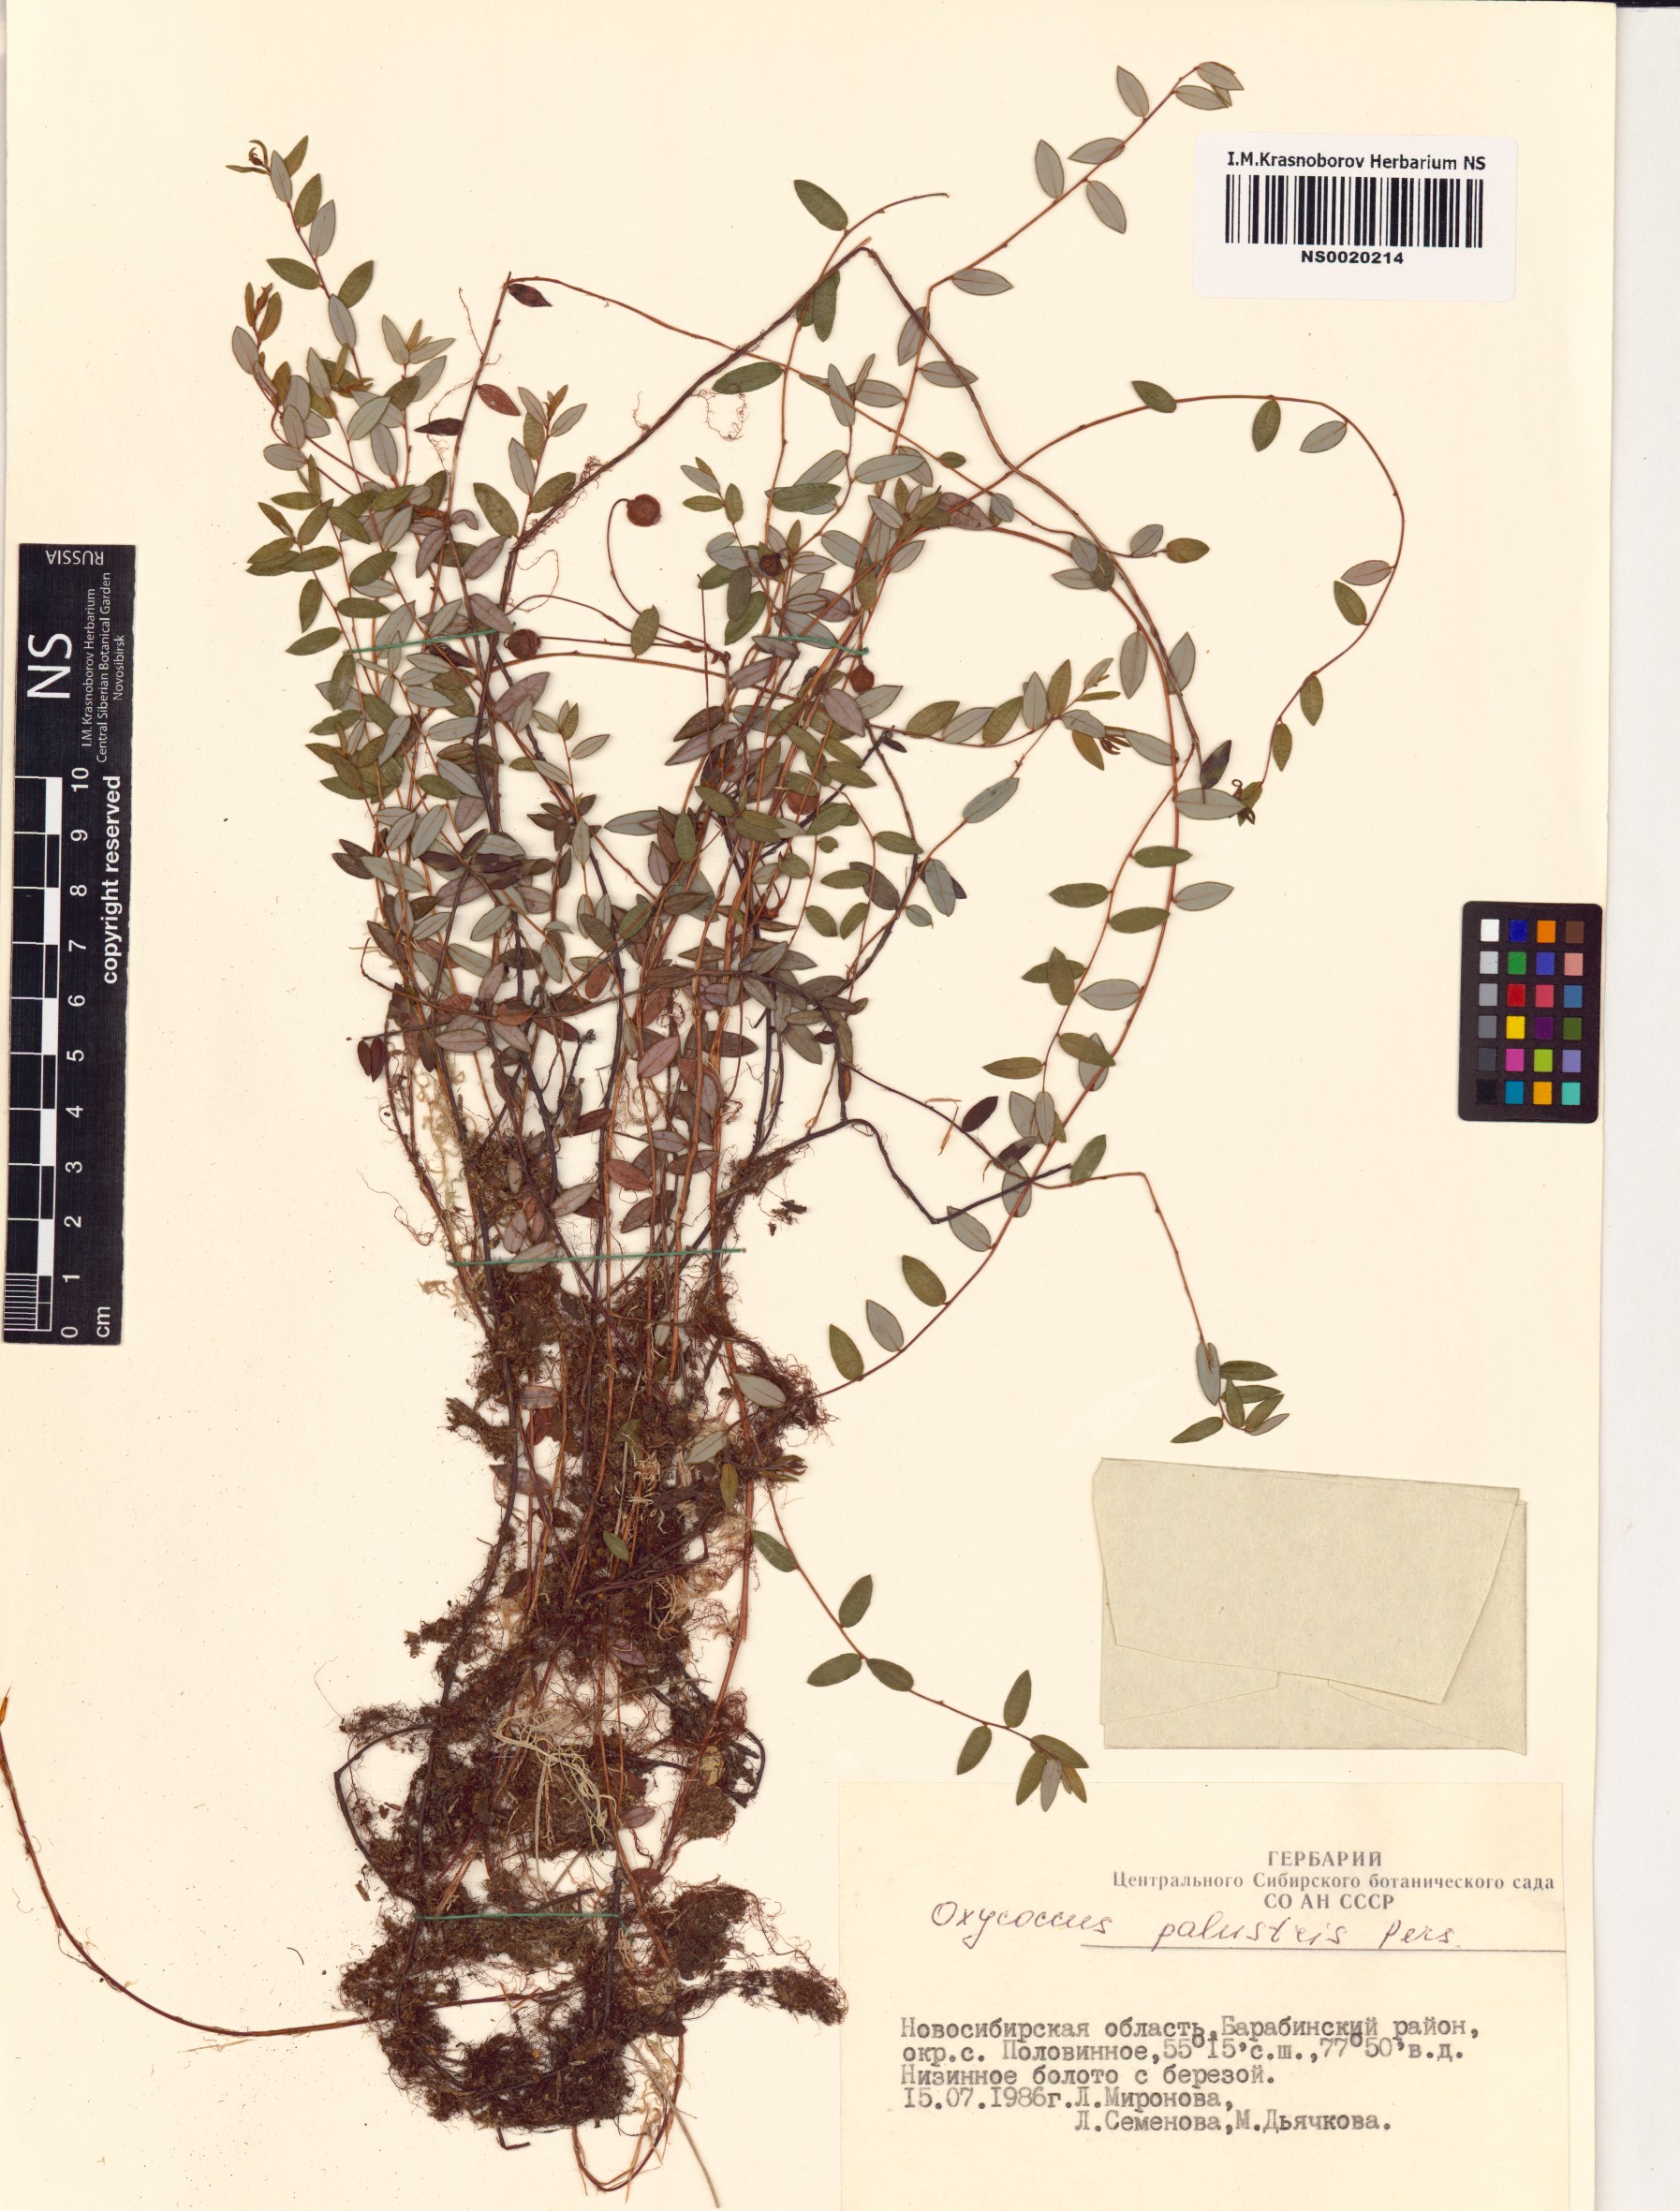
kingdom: Plantae
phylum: Tracheophyta
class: Magnoliopsida
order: Ericales
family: Ericaceae
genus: Vaccinium
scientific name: Vaccinium oxycoccos
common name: Cranberry
